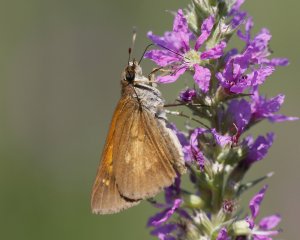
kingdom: Animalia
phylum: Arthropoda
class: Insecta
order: Lepidoptera
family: Hesperiidae
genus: Poanes
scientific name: Poanes viator
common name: Broad-winged Skipper
